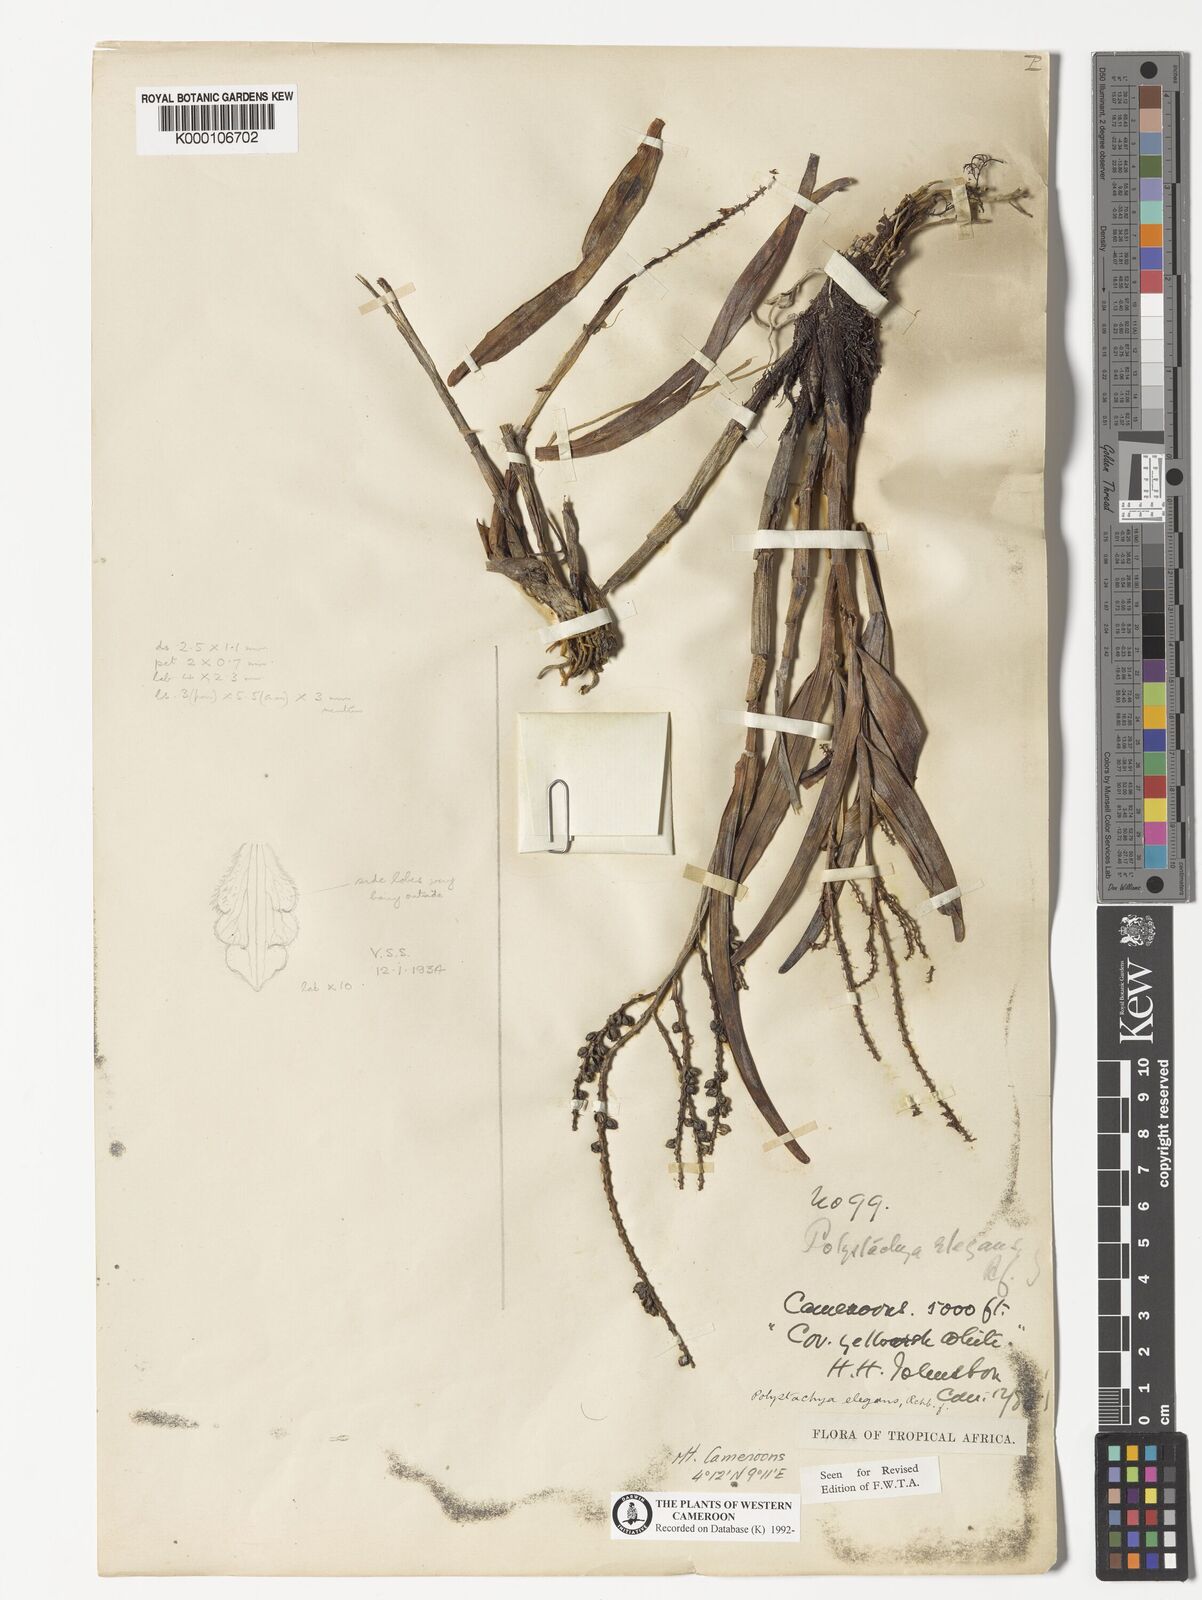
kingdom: Plantae
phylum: Tracheophyta
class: Liliopsida
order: Asparagales
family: Orchidaceae
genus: Polystachya
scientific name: Polystachya elegans
